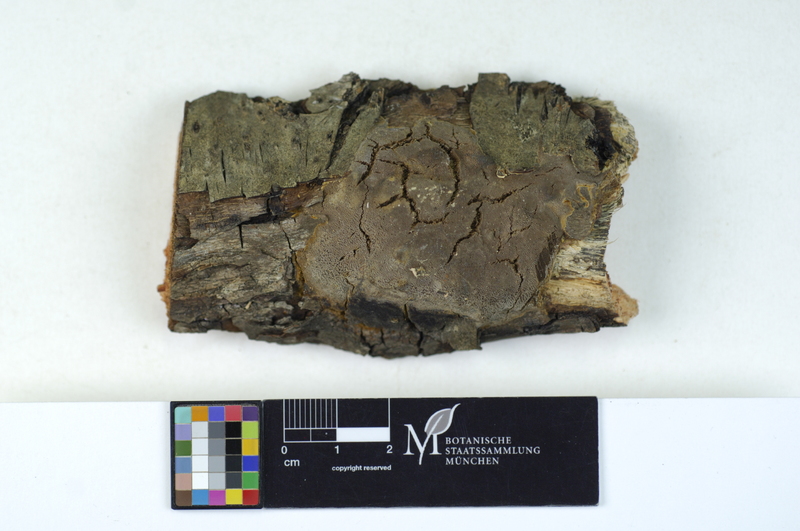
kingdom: Fungi
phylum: Basidiomycota
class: Agaricomycetes
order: Hymenochaetales
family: Hymenochaetaceae
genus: Phellinus
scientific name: Phellinus rhamni
